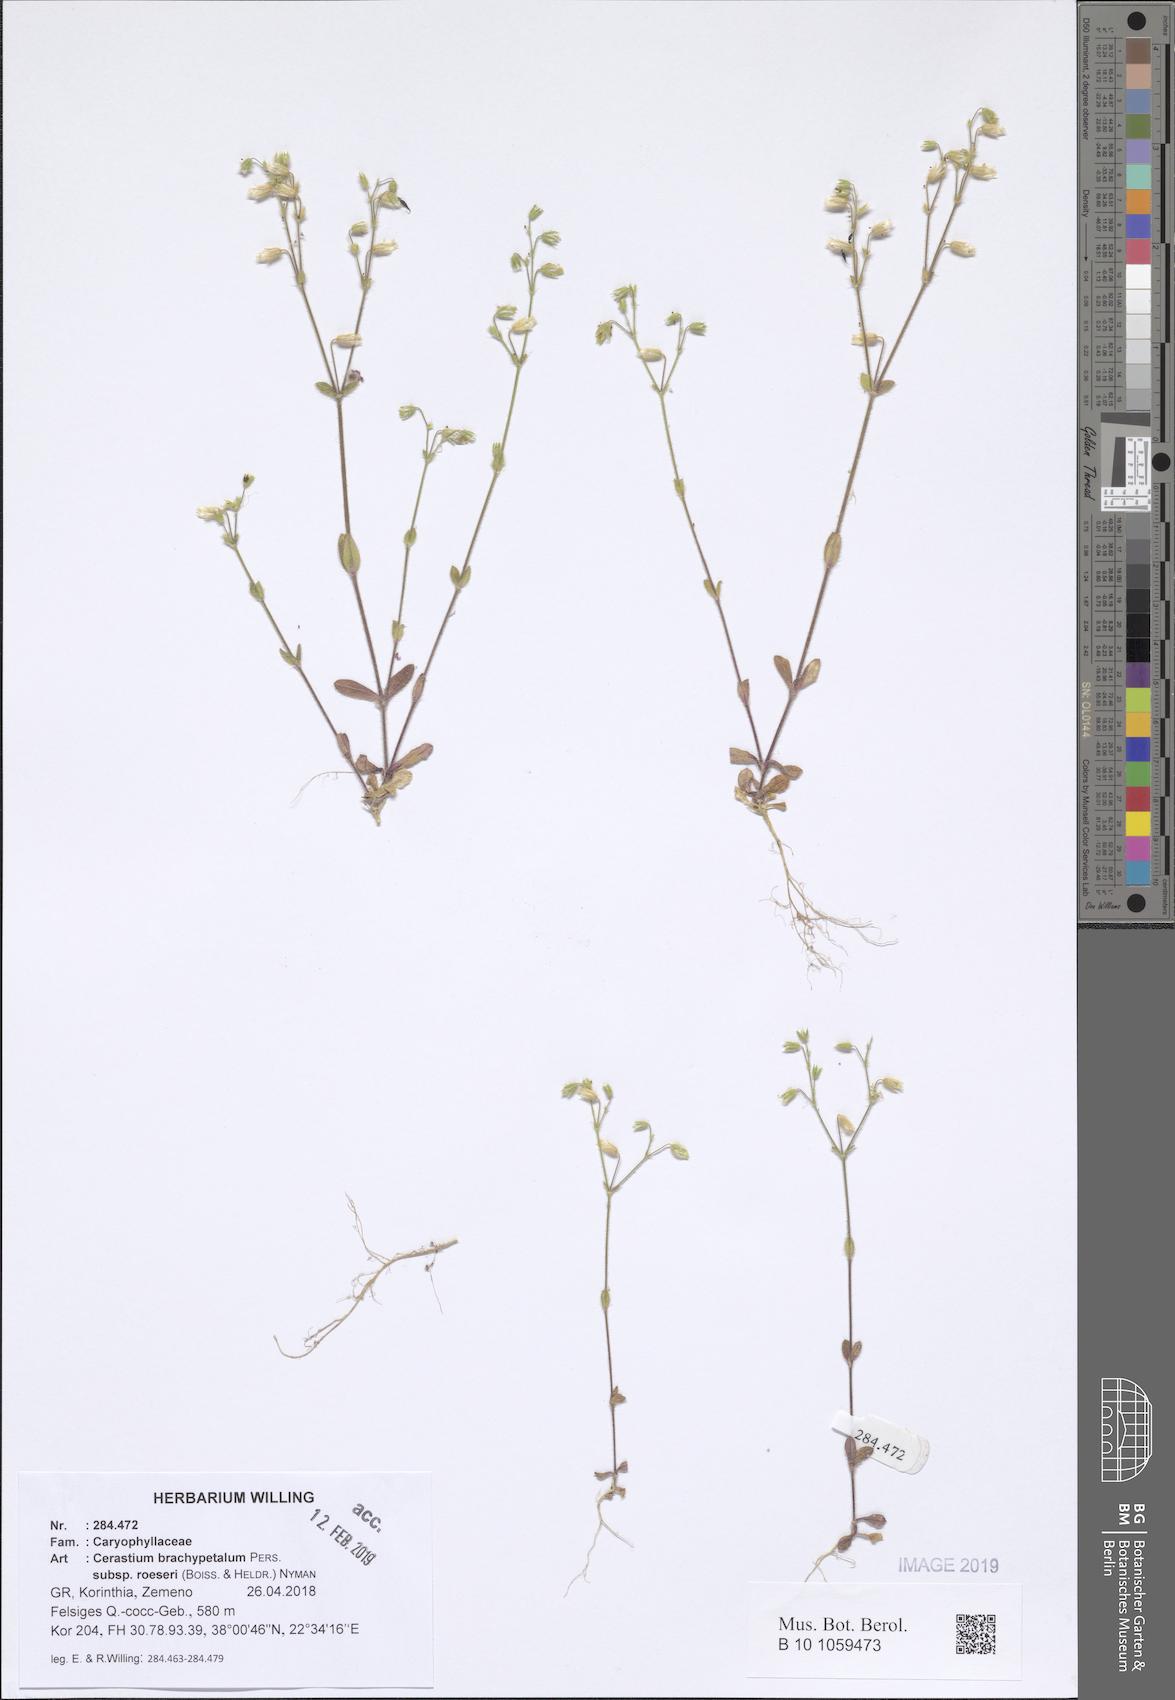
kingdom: Plantae
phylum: Tracheophyta
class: Magnoliopsida
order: Caryophyllales
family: Caryophyllaceae
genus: Cerastium
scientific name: Cerastium brachypetalum
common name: Grey mouse-ear
